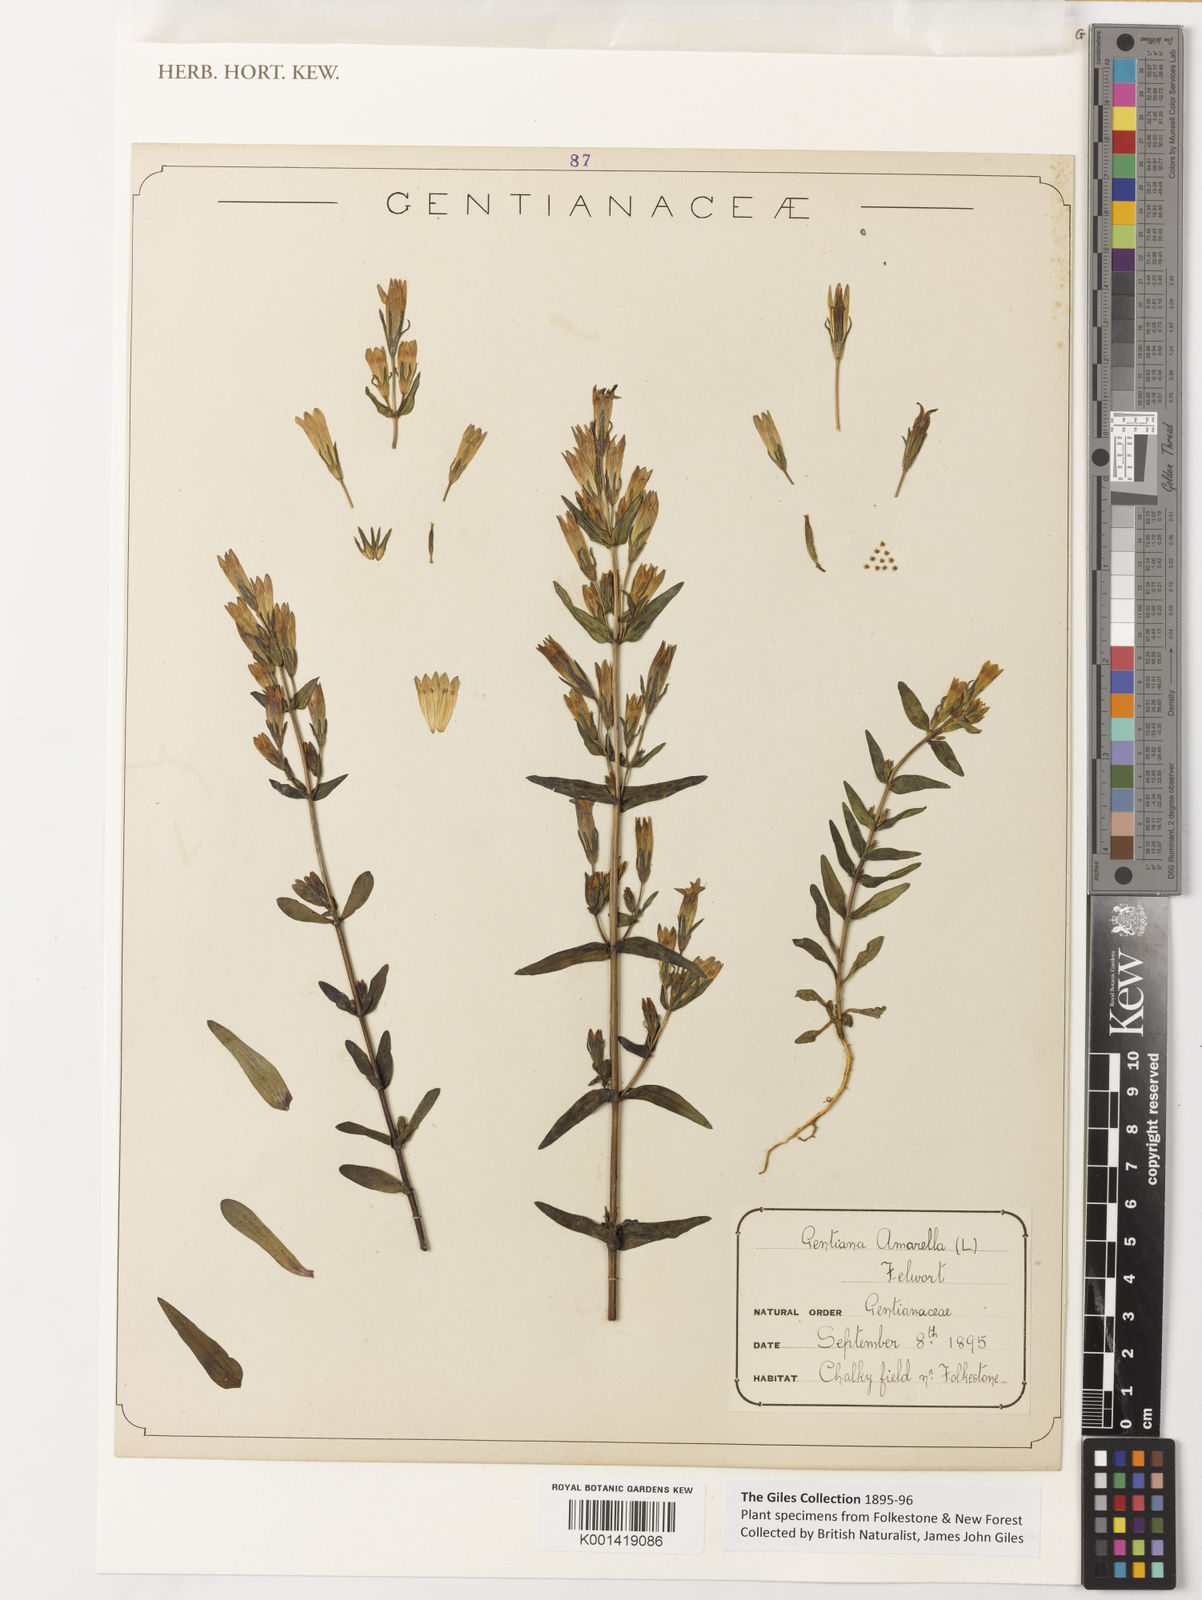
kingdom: Plantae
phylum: Tracheophyta
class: Magnoliopsida
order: Gentianales
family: Gentianaceae
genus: Gentianella
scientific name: Gentianella amarella
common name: Autumn gentian
